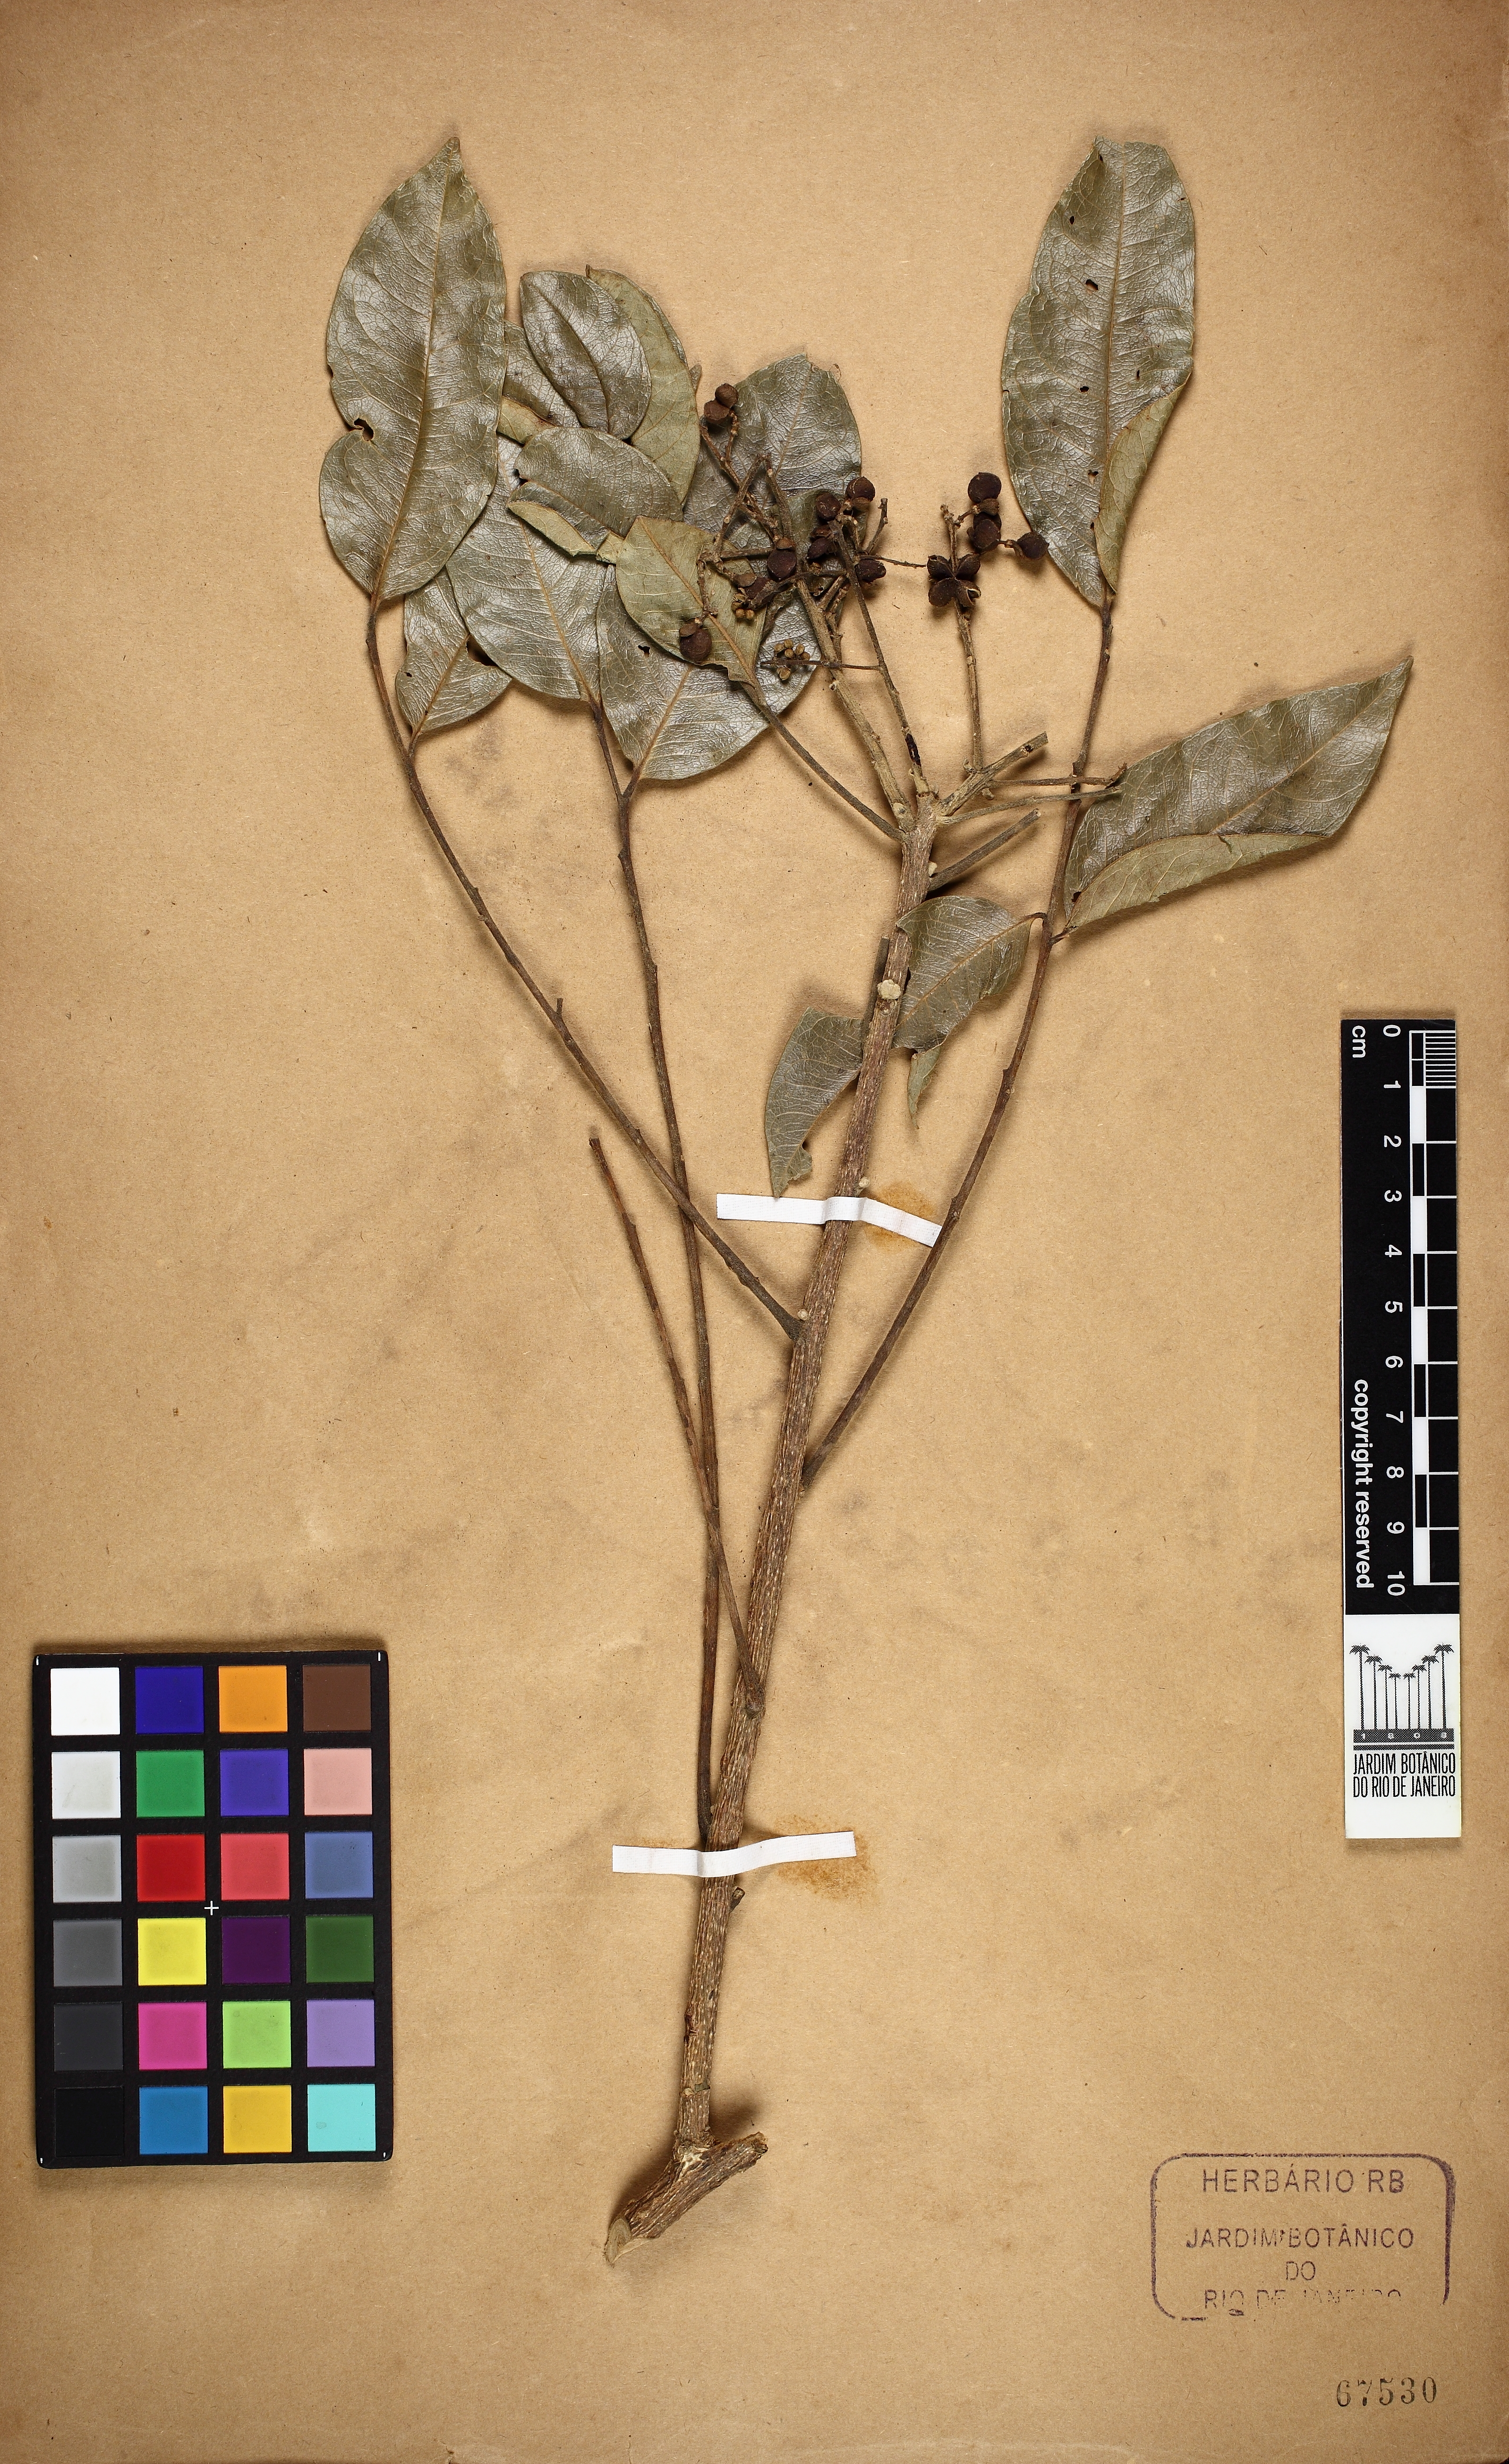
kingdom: Plantae
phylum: Tracheophyta
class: Magnoliopsida
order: Sapindales
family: Rutaceae
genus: Zanthoxylum
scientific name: Zanthoxylum riedelianum
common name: White copal
